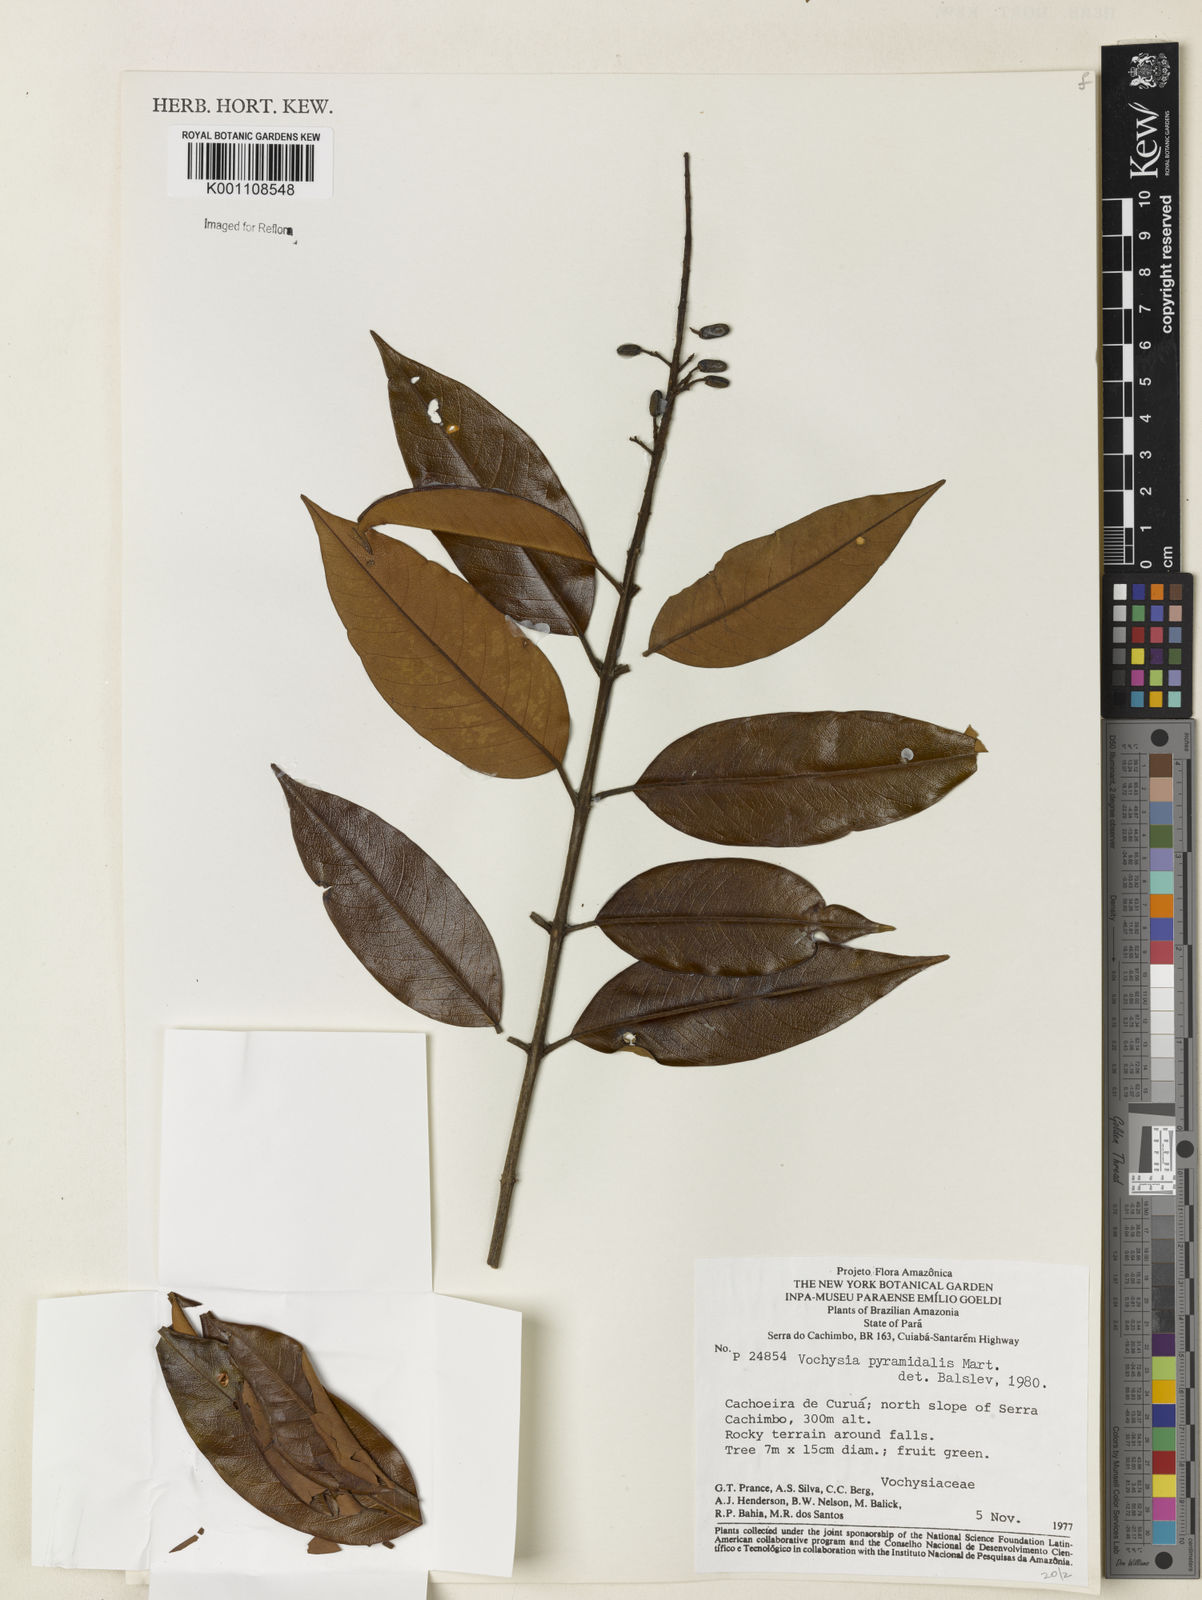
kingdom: Plantae
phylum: Tracheophyta
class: Magnoliopsida
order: Myrtales
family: Vochysiaceae
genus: Vochysia
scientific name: Vochysia pyramidalis
